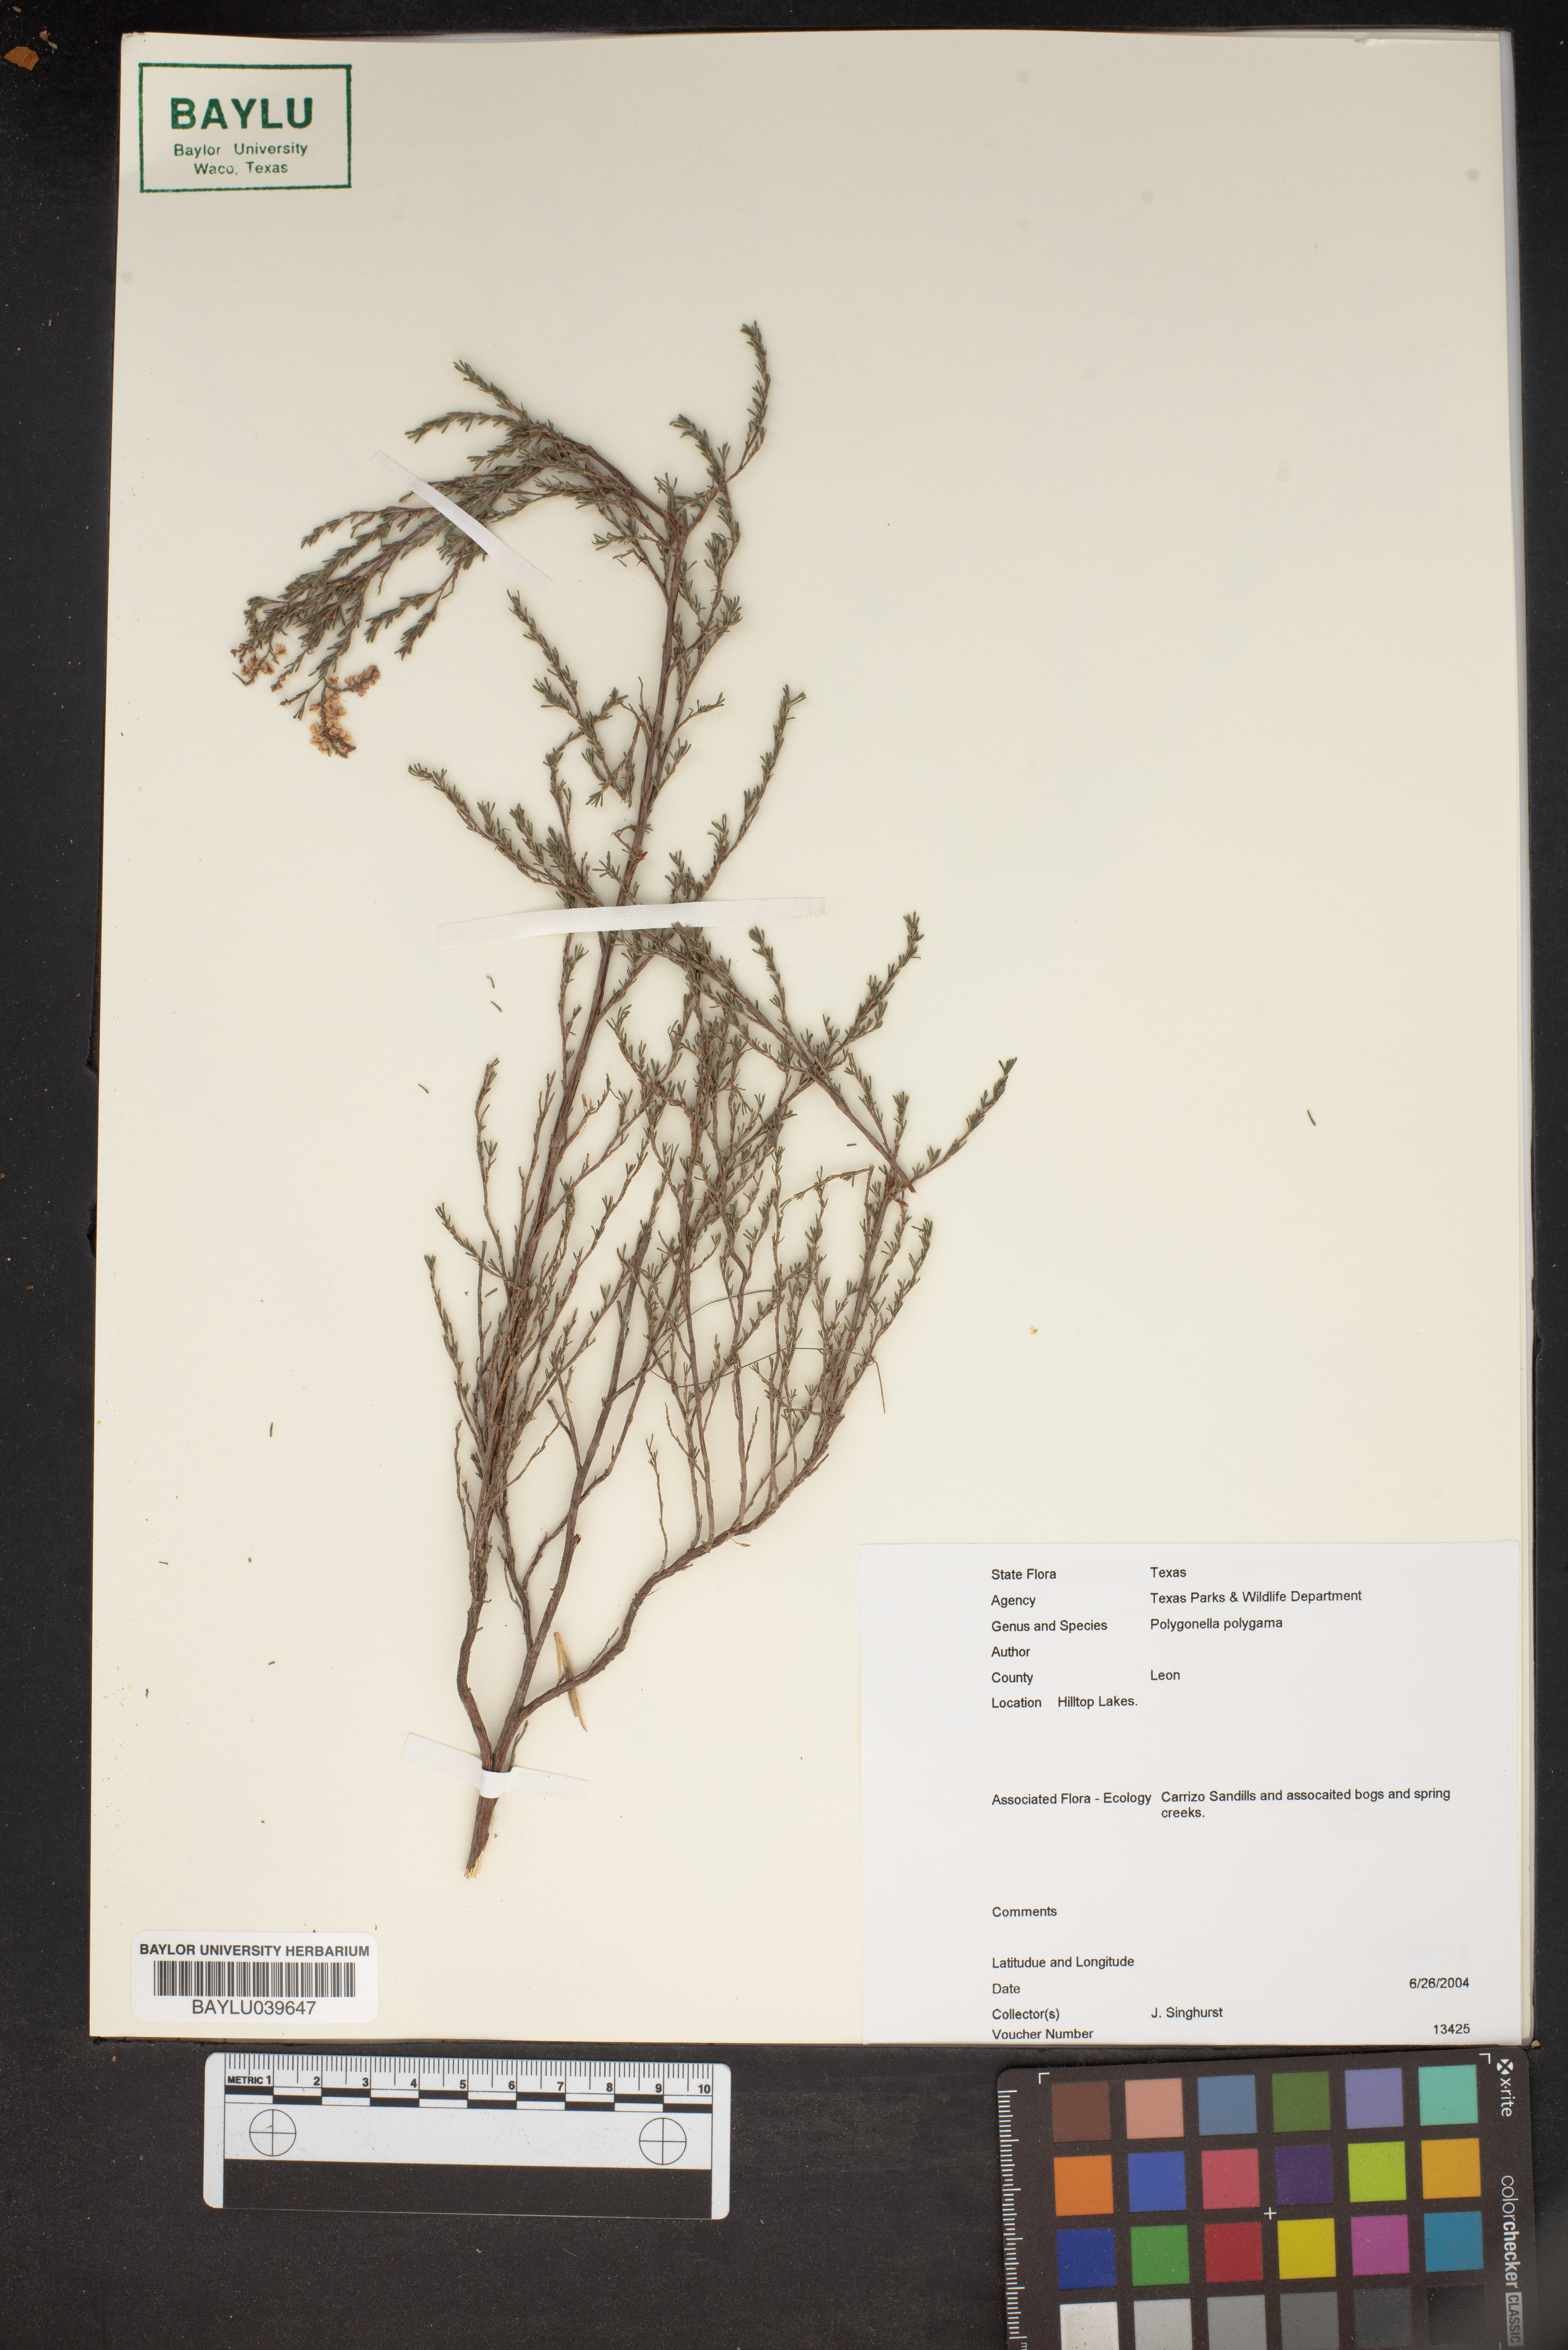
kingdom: Plantae
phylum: Tracheophyta
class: Magnoliopsida
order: Caryophyllales
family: Polygonaceae
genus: Polygonella
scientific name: Polygonella polygama
